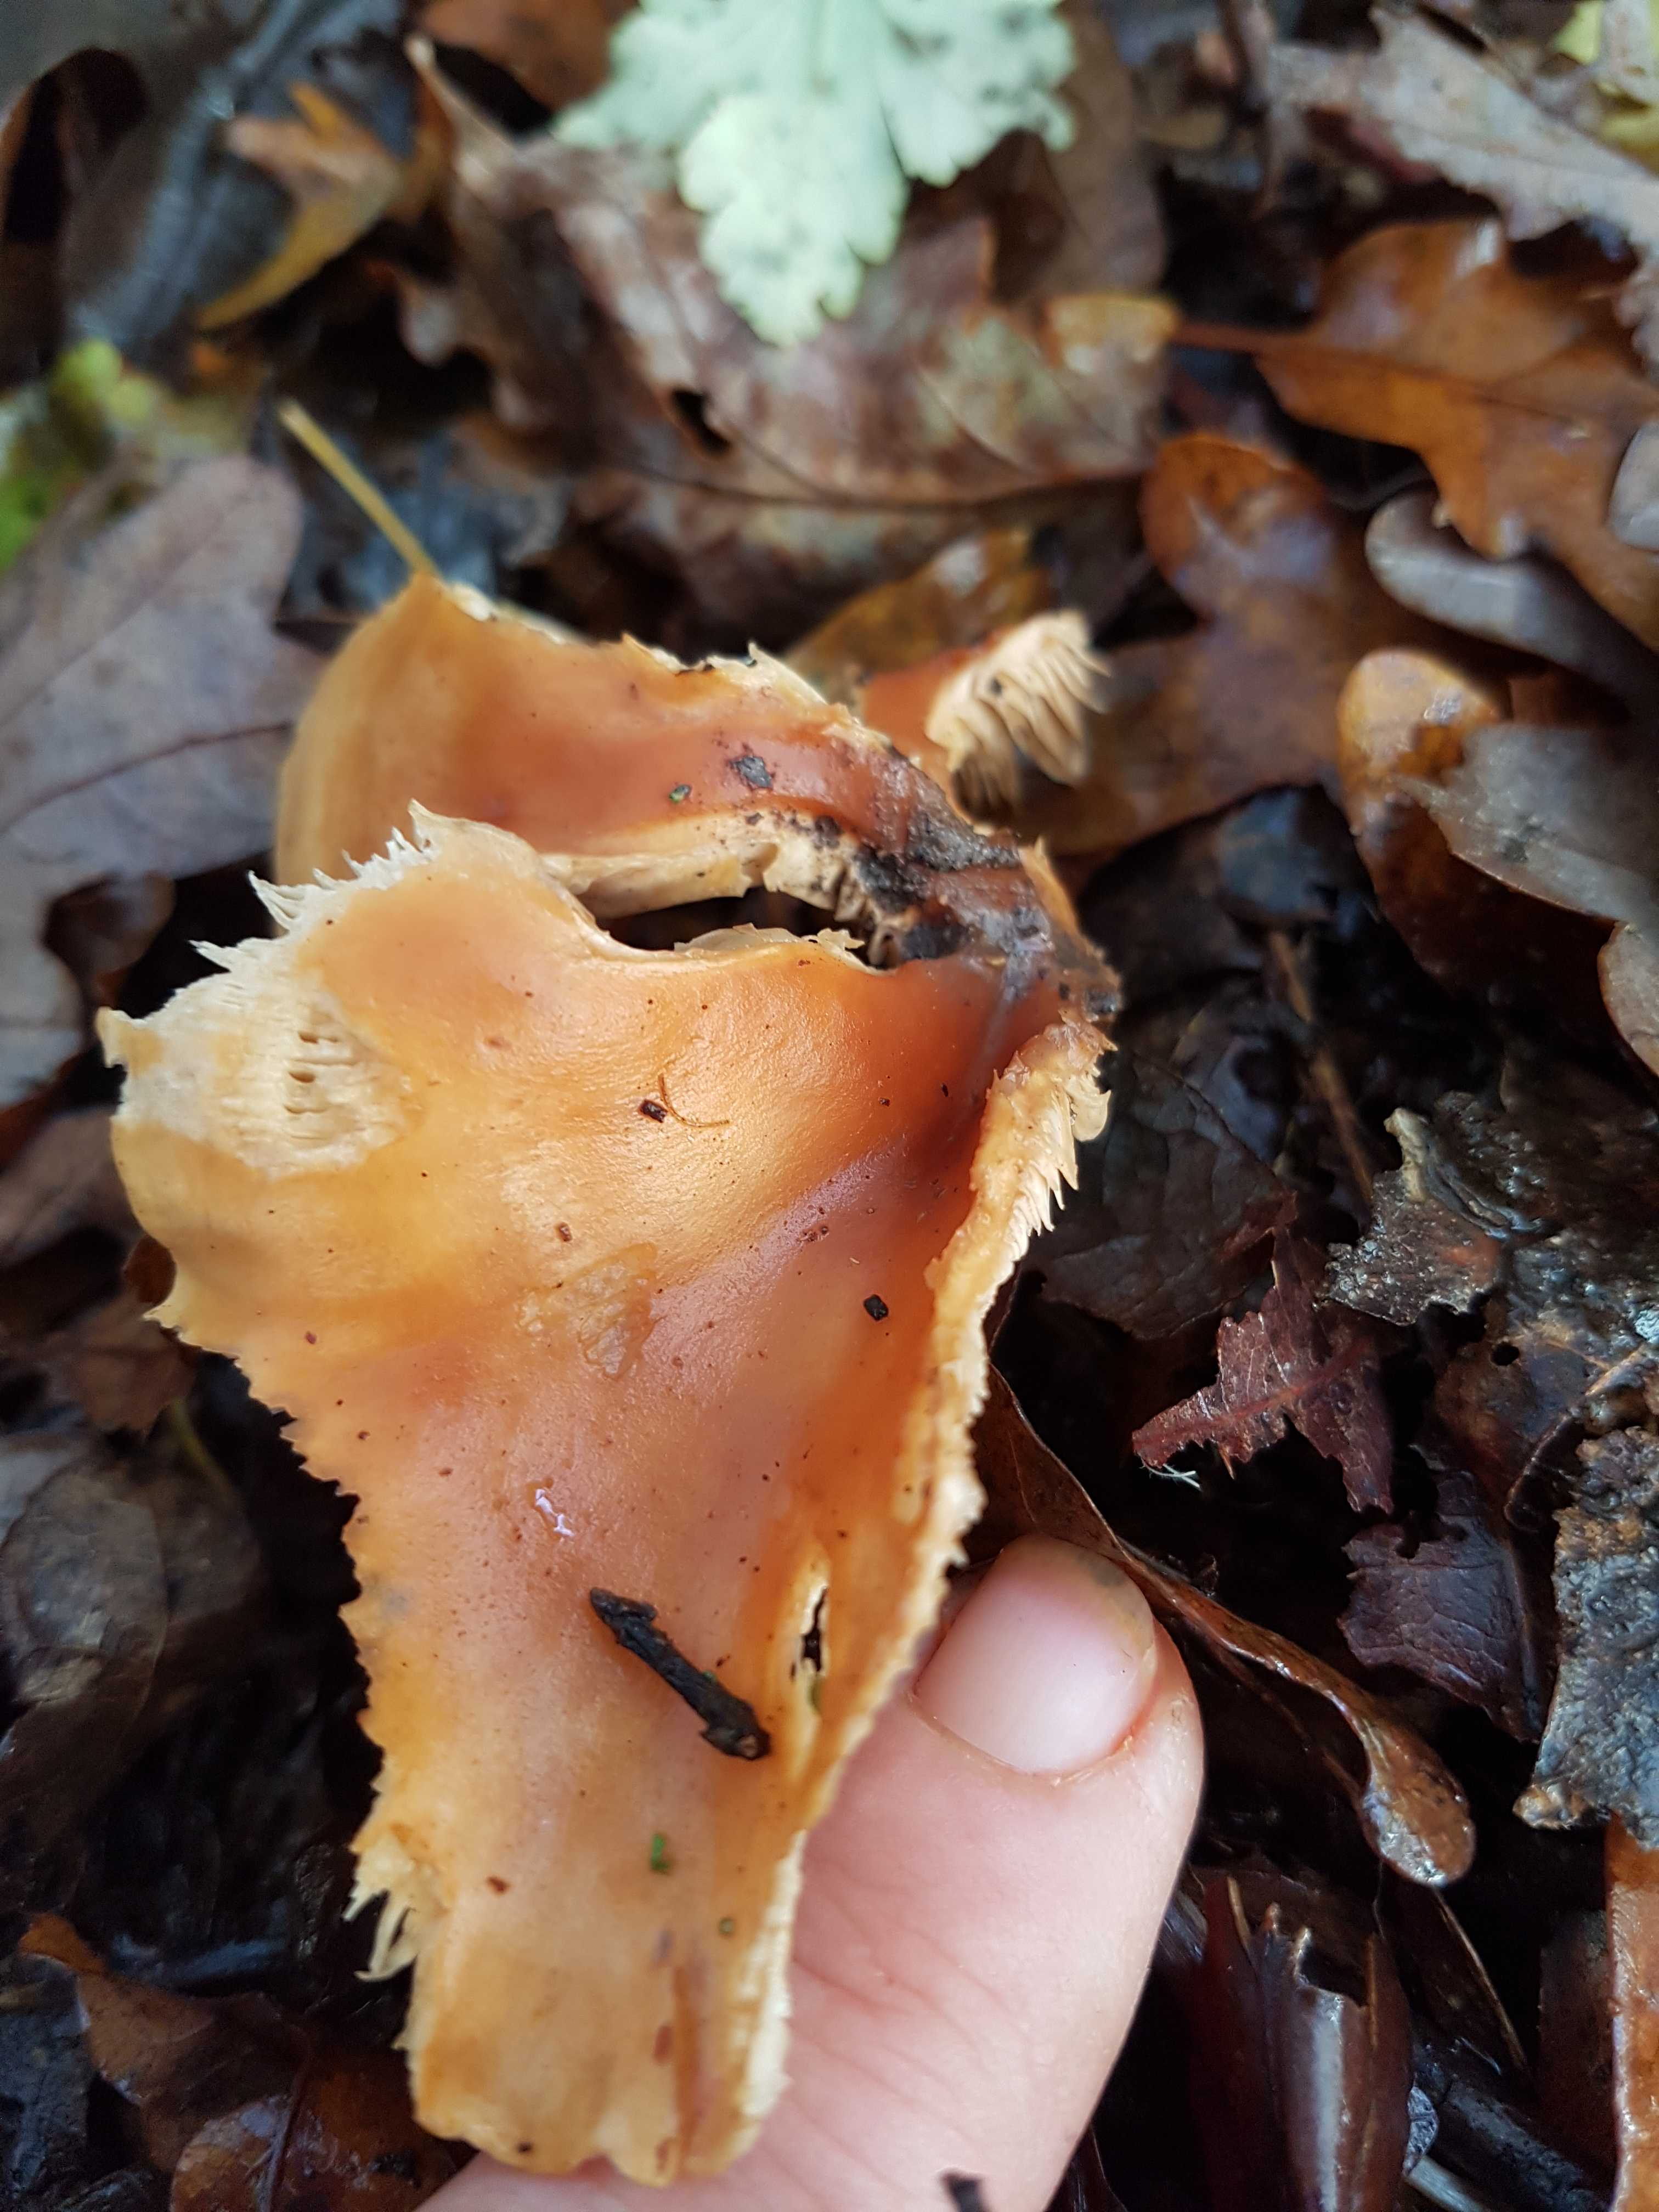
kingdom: Fungi
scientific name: Fungi
